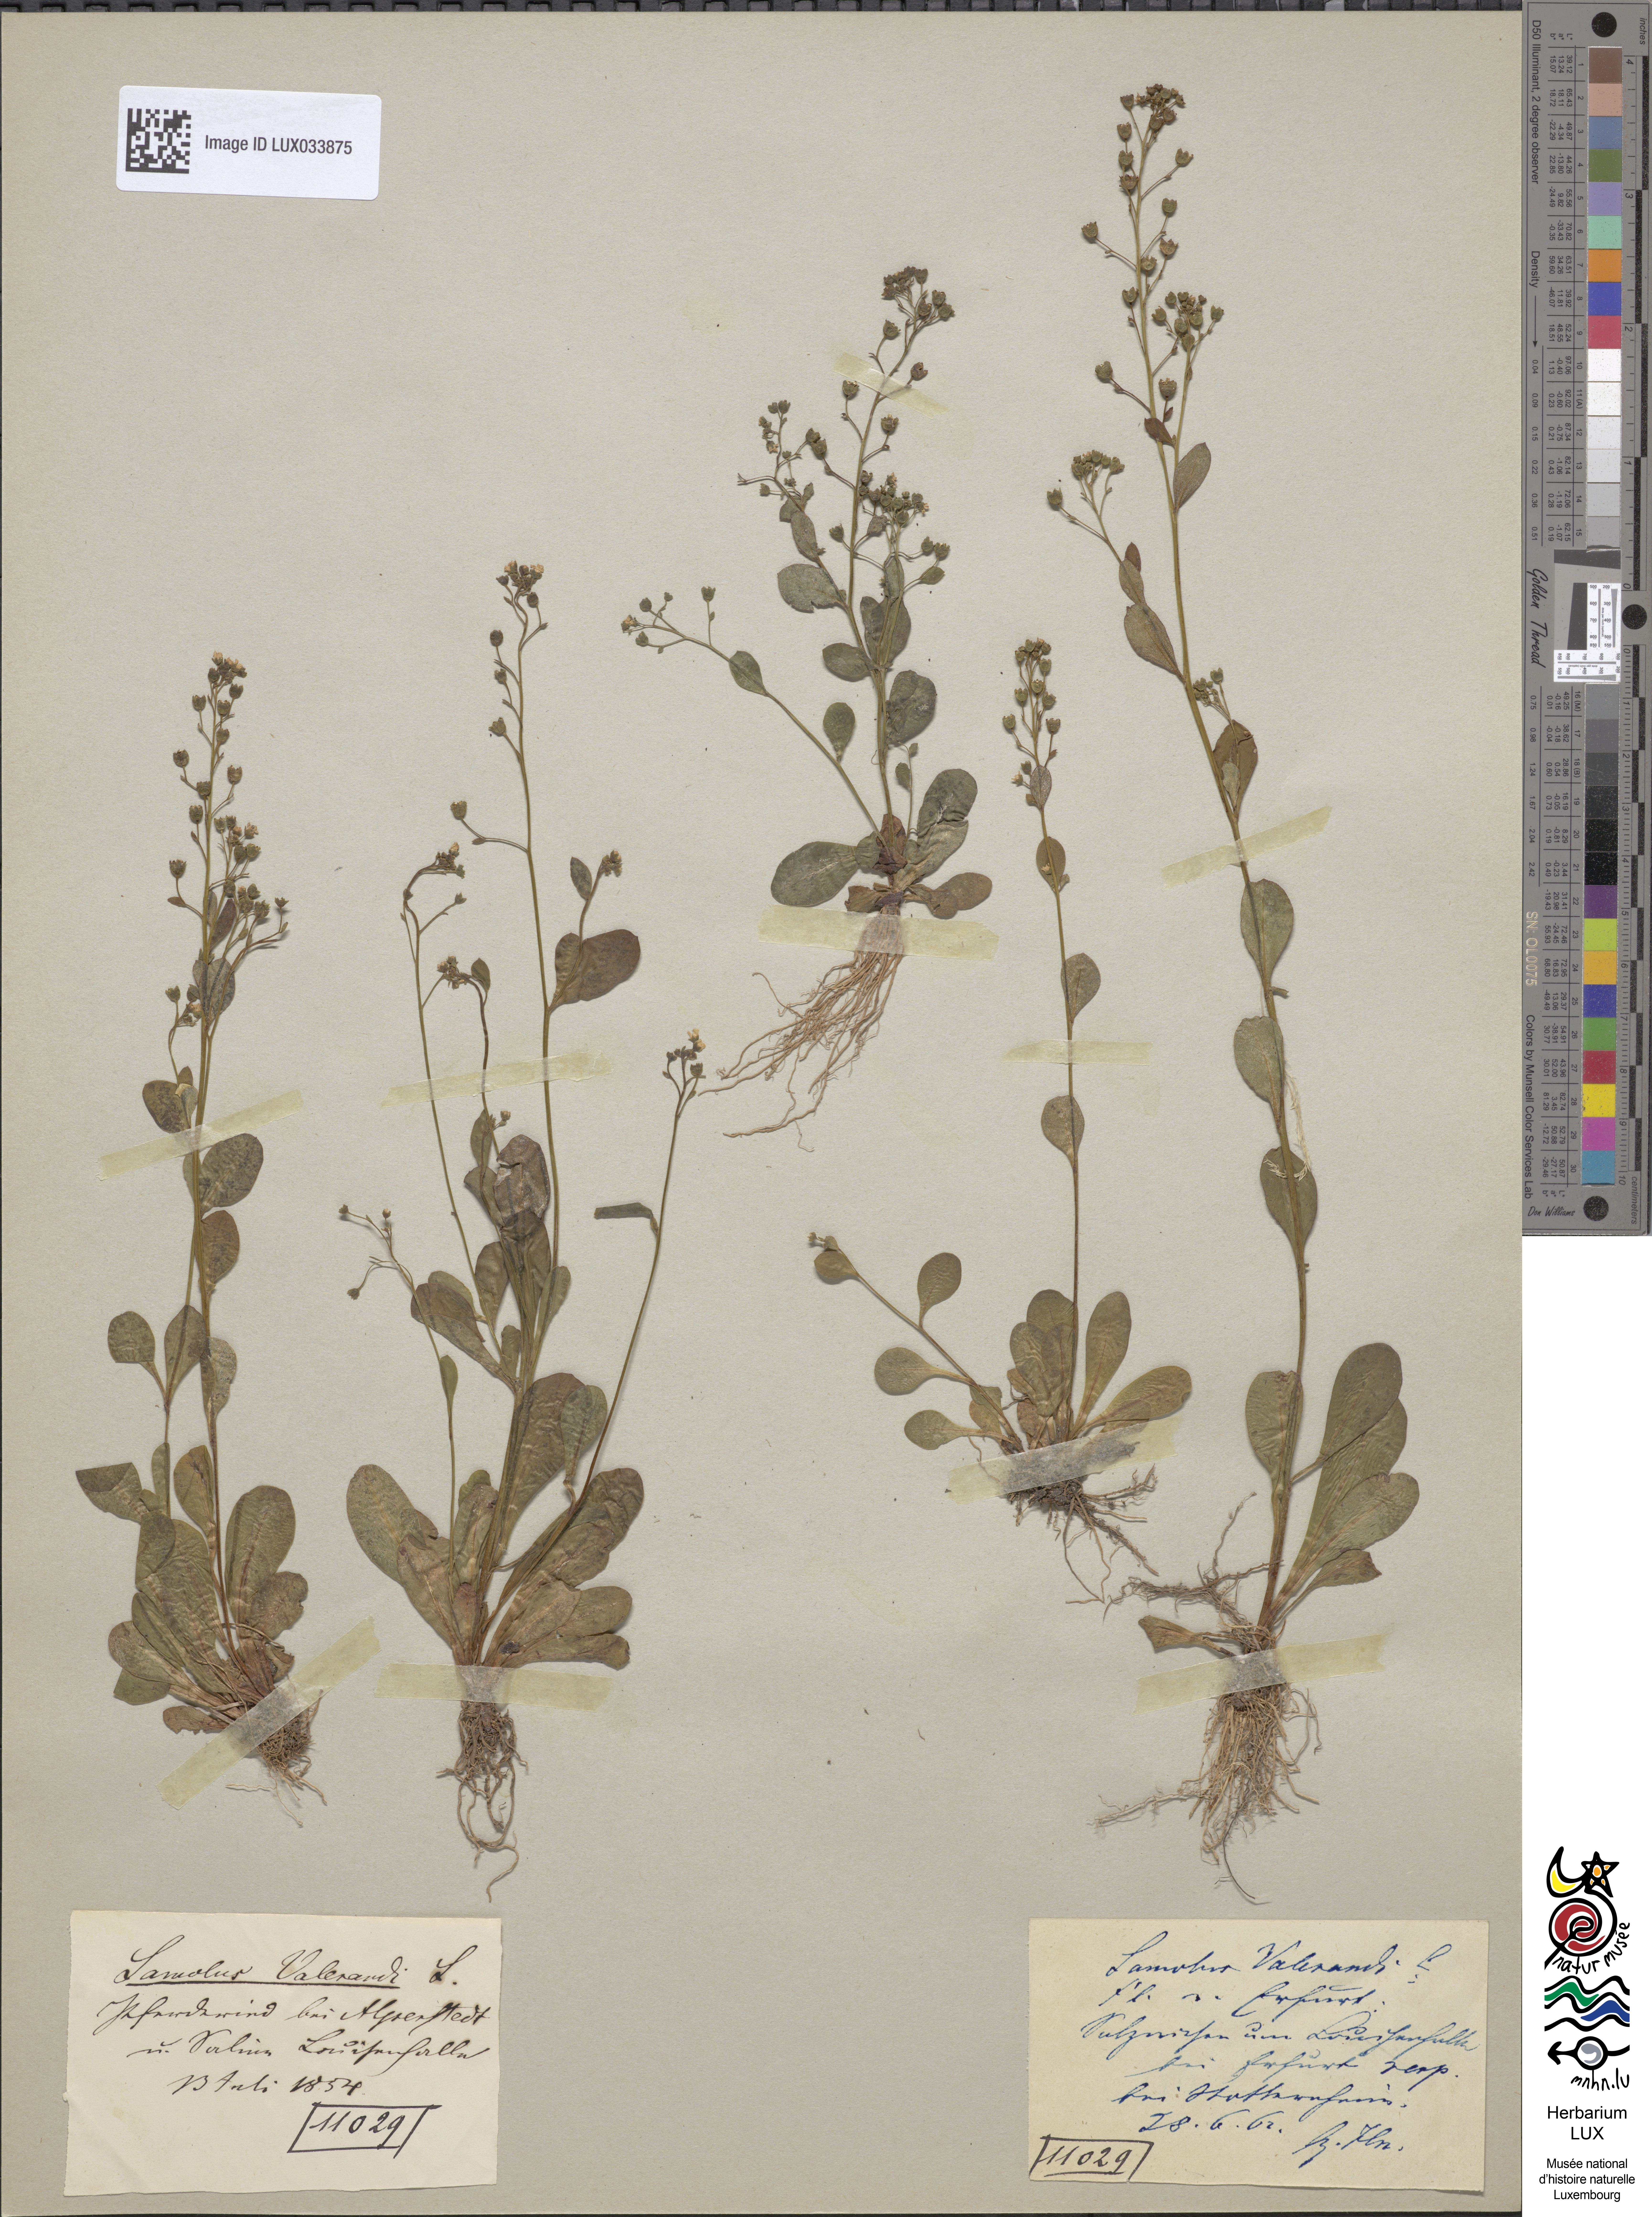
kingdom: Plantae
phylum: Tracheophyta
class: Magnoliopsida
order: Ericales
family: Primulaceae
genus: Samolus
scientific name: Samolus valerandi
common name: Brookweed
